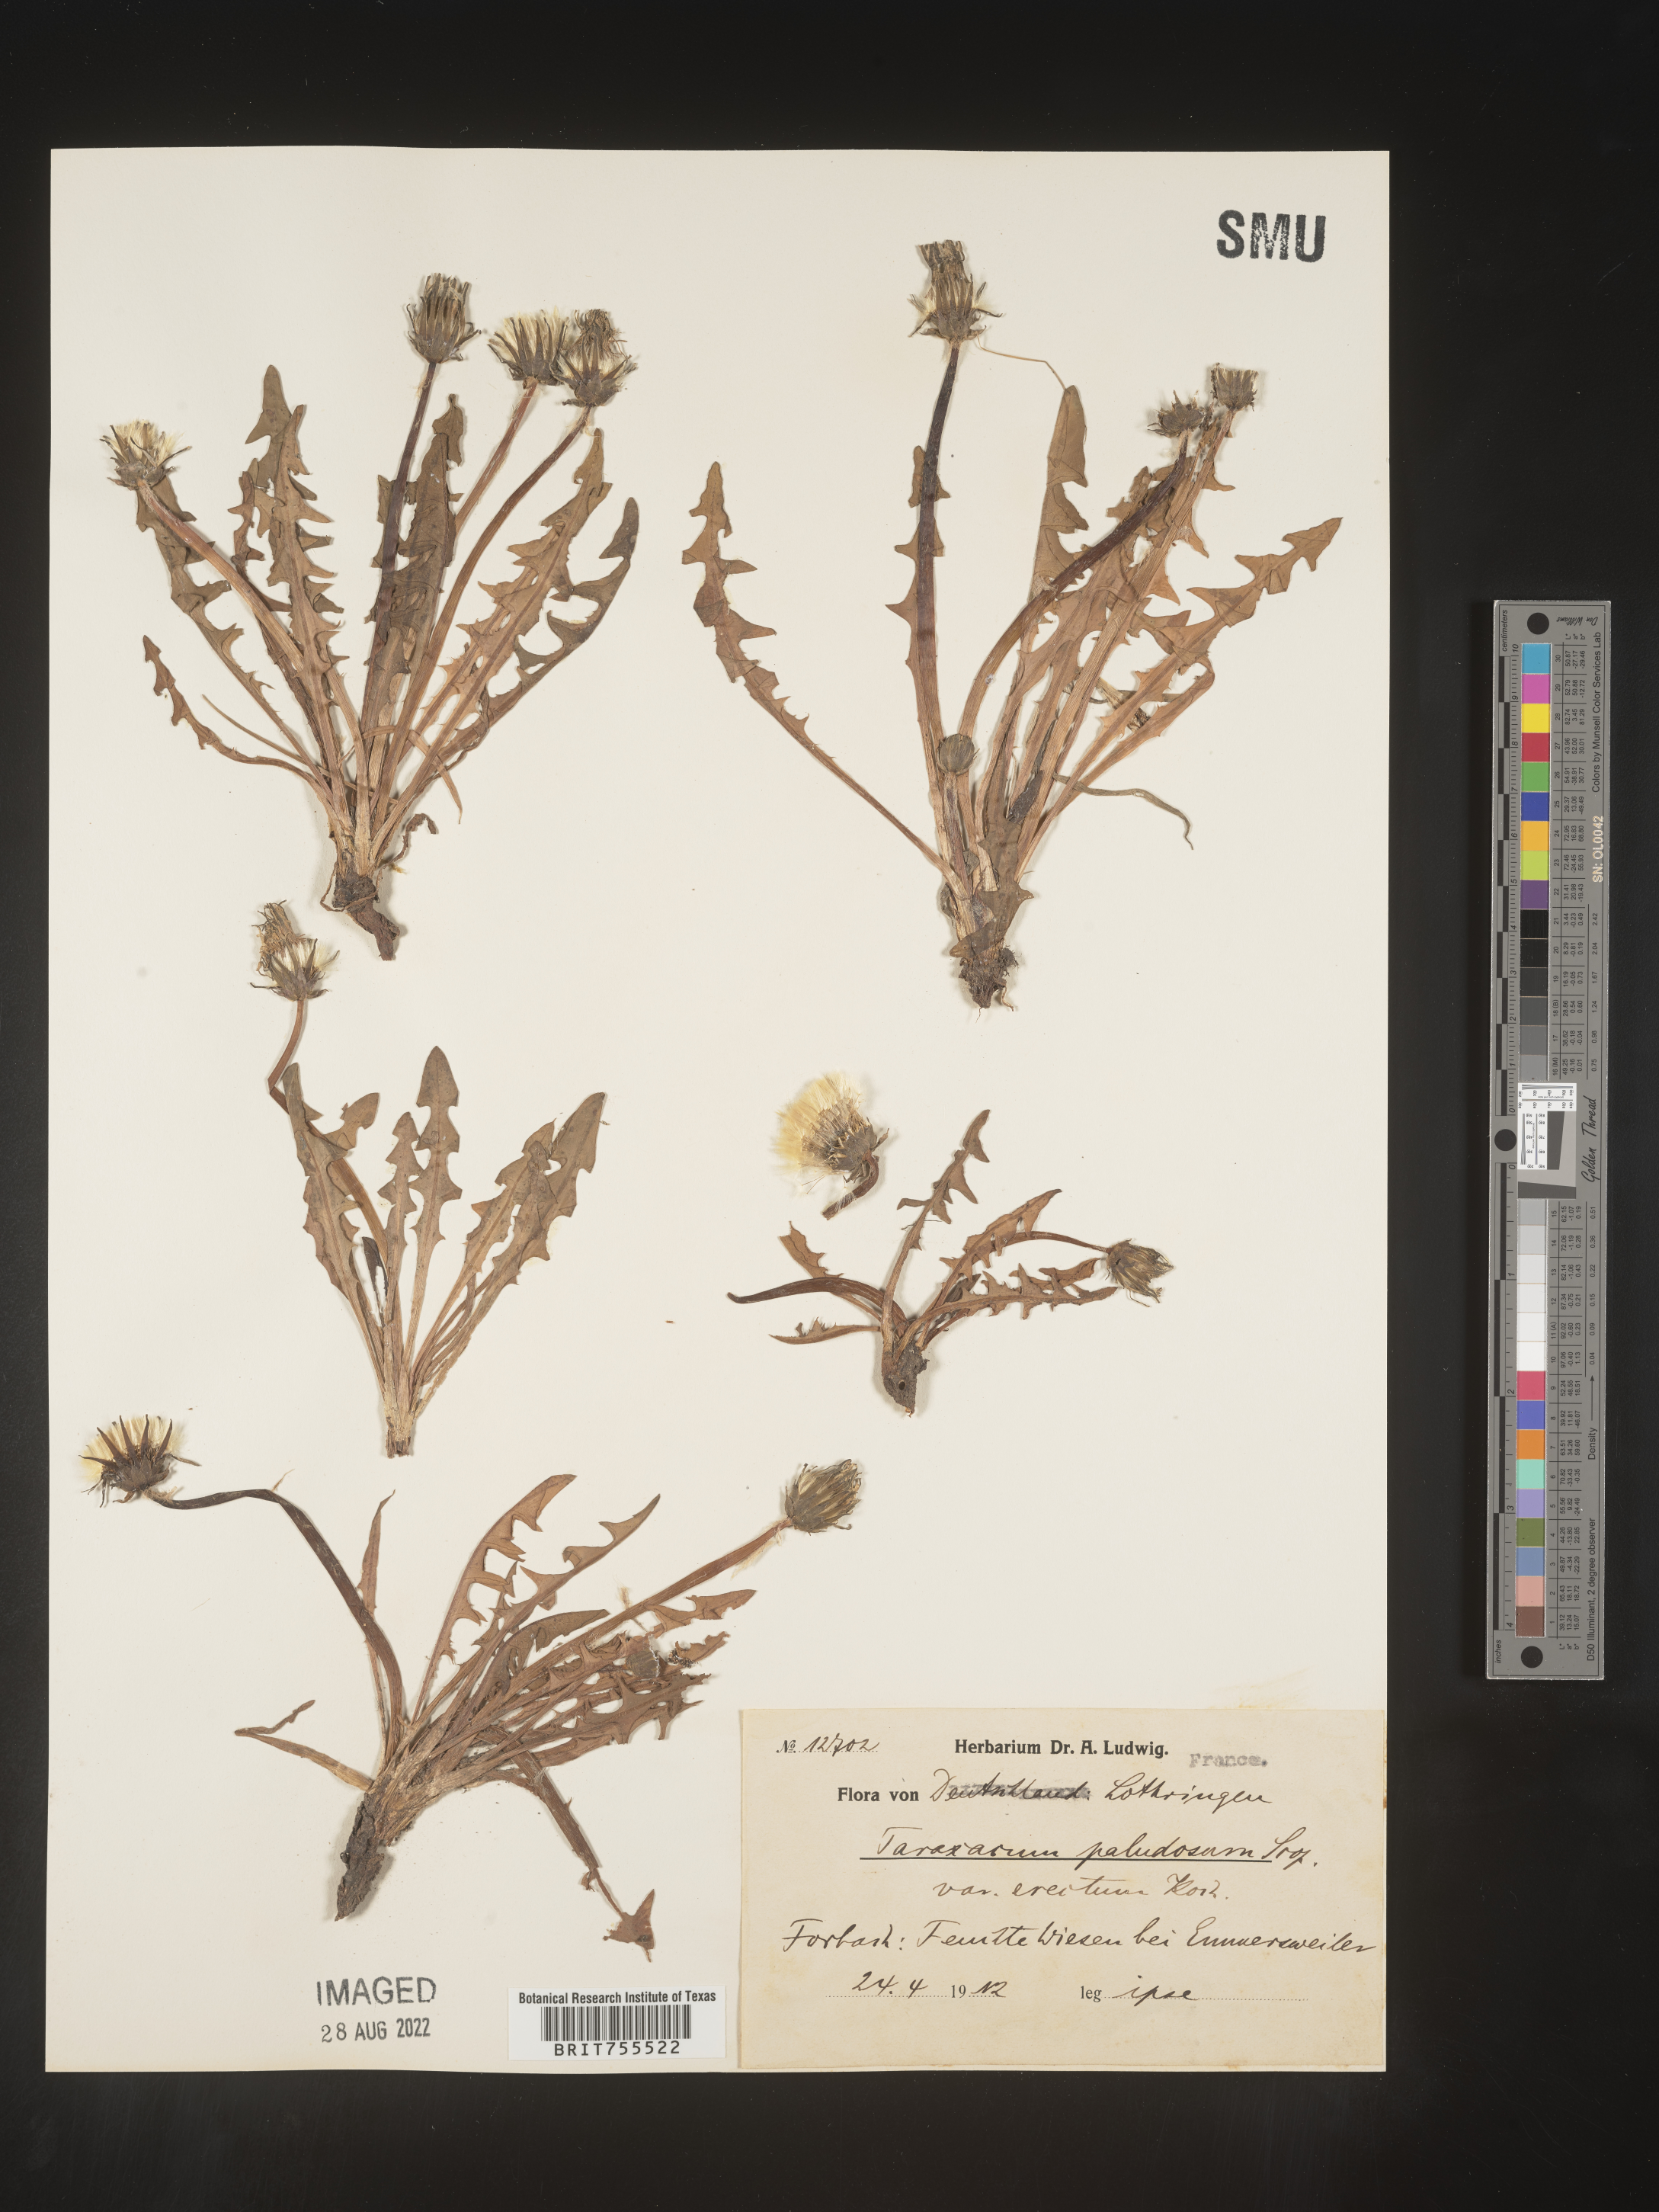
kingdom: Plantae
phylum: Tracheophyta
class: Magnoliopsida
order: Asterales
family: Asteraceae
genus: Taraxacum
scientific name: Taraxacum
